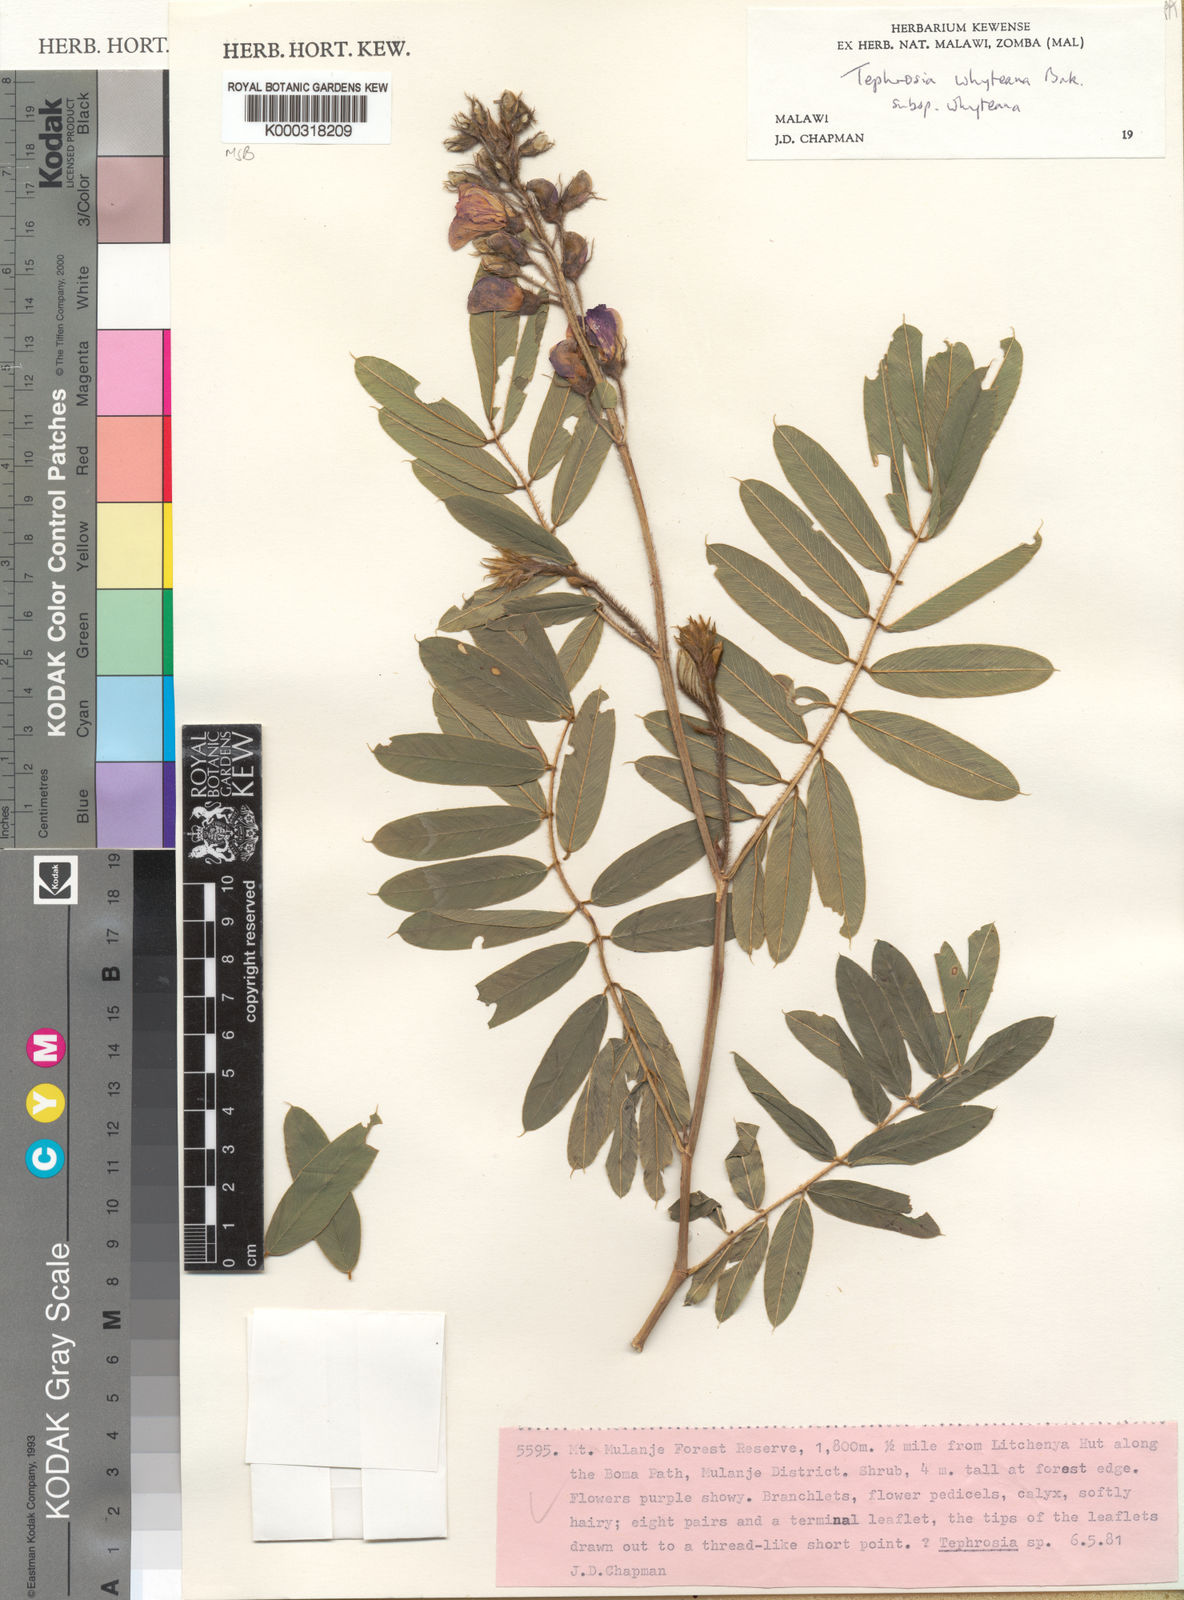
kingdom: Plantae
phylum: Tracheophyta
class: Magnoliopsida
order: Fabales
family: Fabaceae
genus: Tephrosia
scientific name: Tephrosia whyteana
